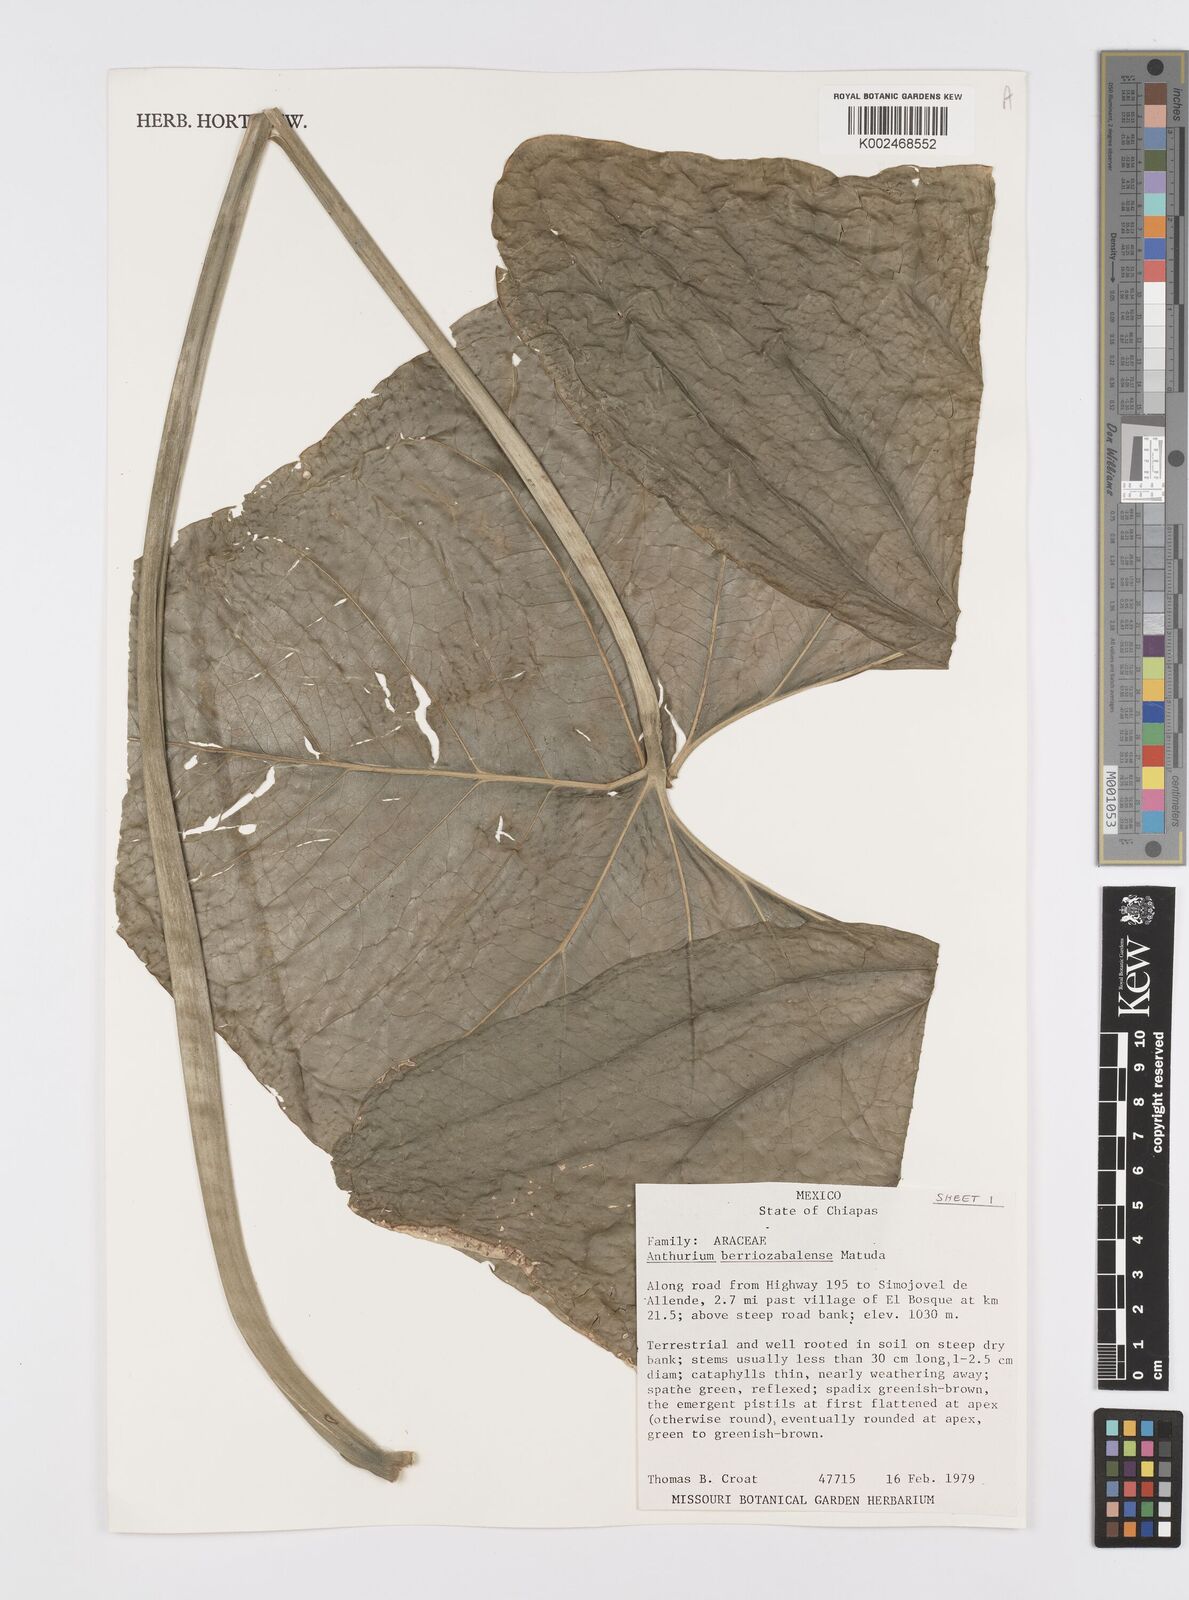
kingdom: Plantae
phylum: Tracheophyta
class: Liliopsida
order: Alismatales
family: Araceae
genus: Anthurium
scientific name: Anthurium berriozabalense
